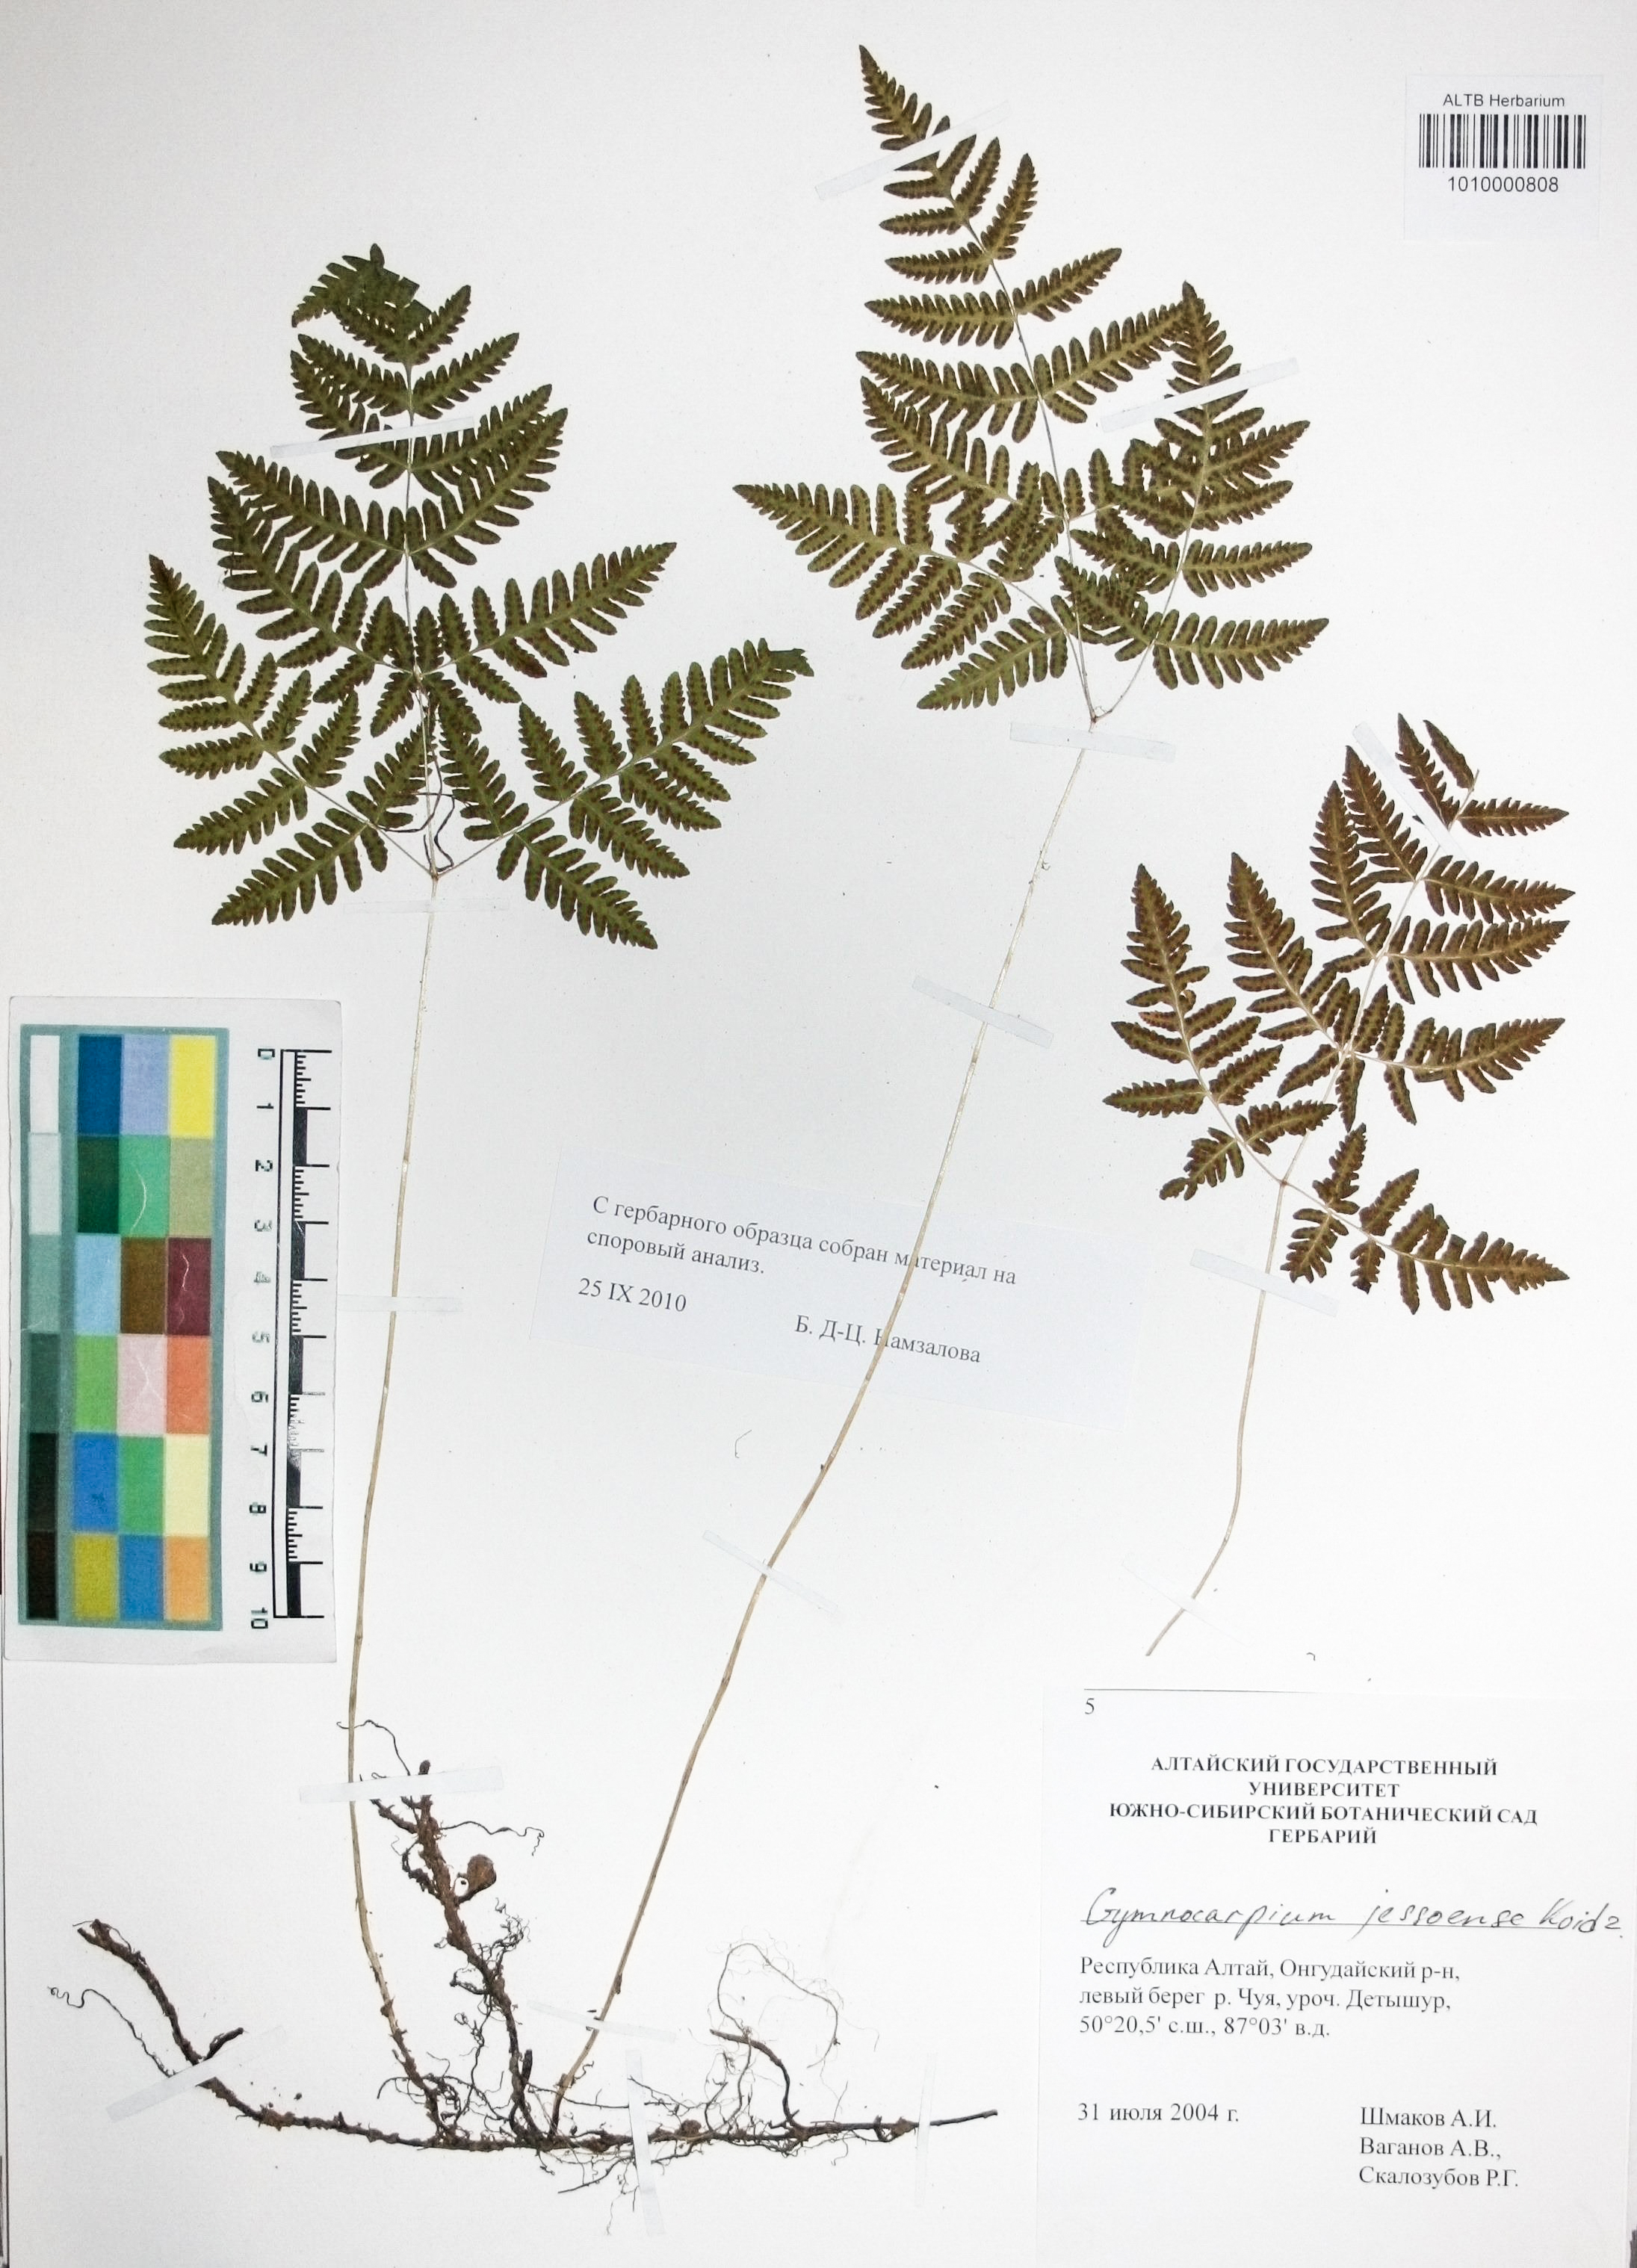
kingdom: Plantae
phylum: Tracheophyta
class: Polypodiopsida
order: Polypodiales
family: Cystopteridaceae
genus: Gymnocarpium
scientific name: Gymnocarpium jessoense
